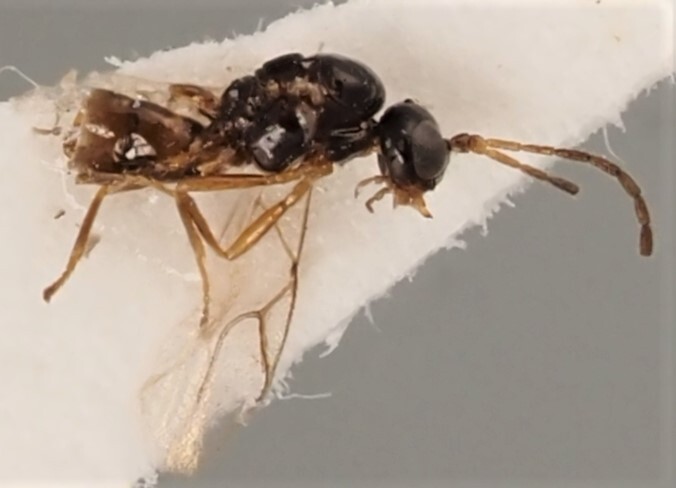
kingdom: Animalia
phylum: Arthropoda
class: Insecta
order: Hymenoptera
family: Braconidae
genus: Trioxys
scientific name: Trioxys betulae
